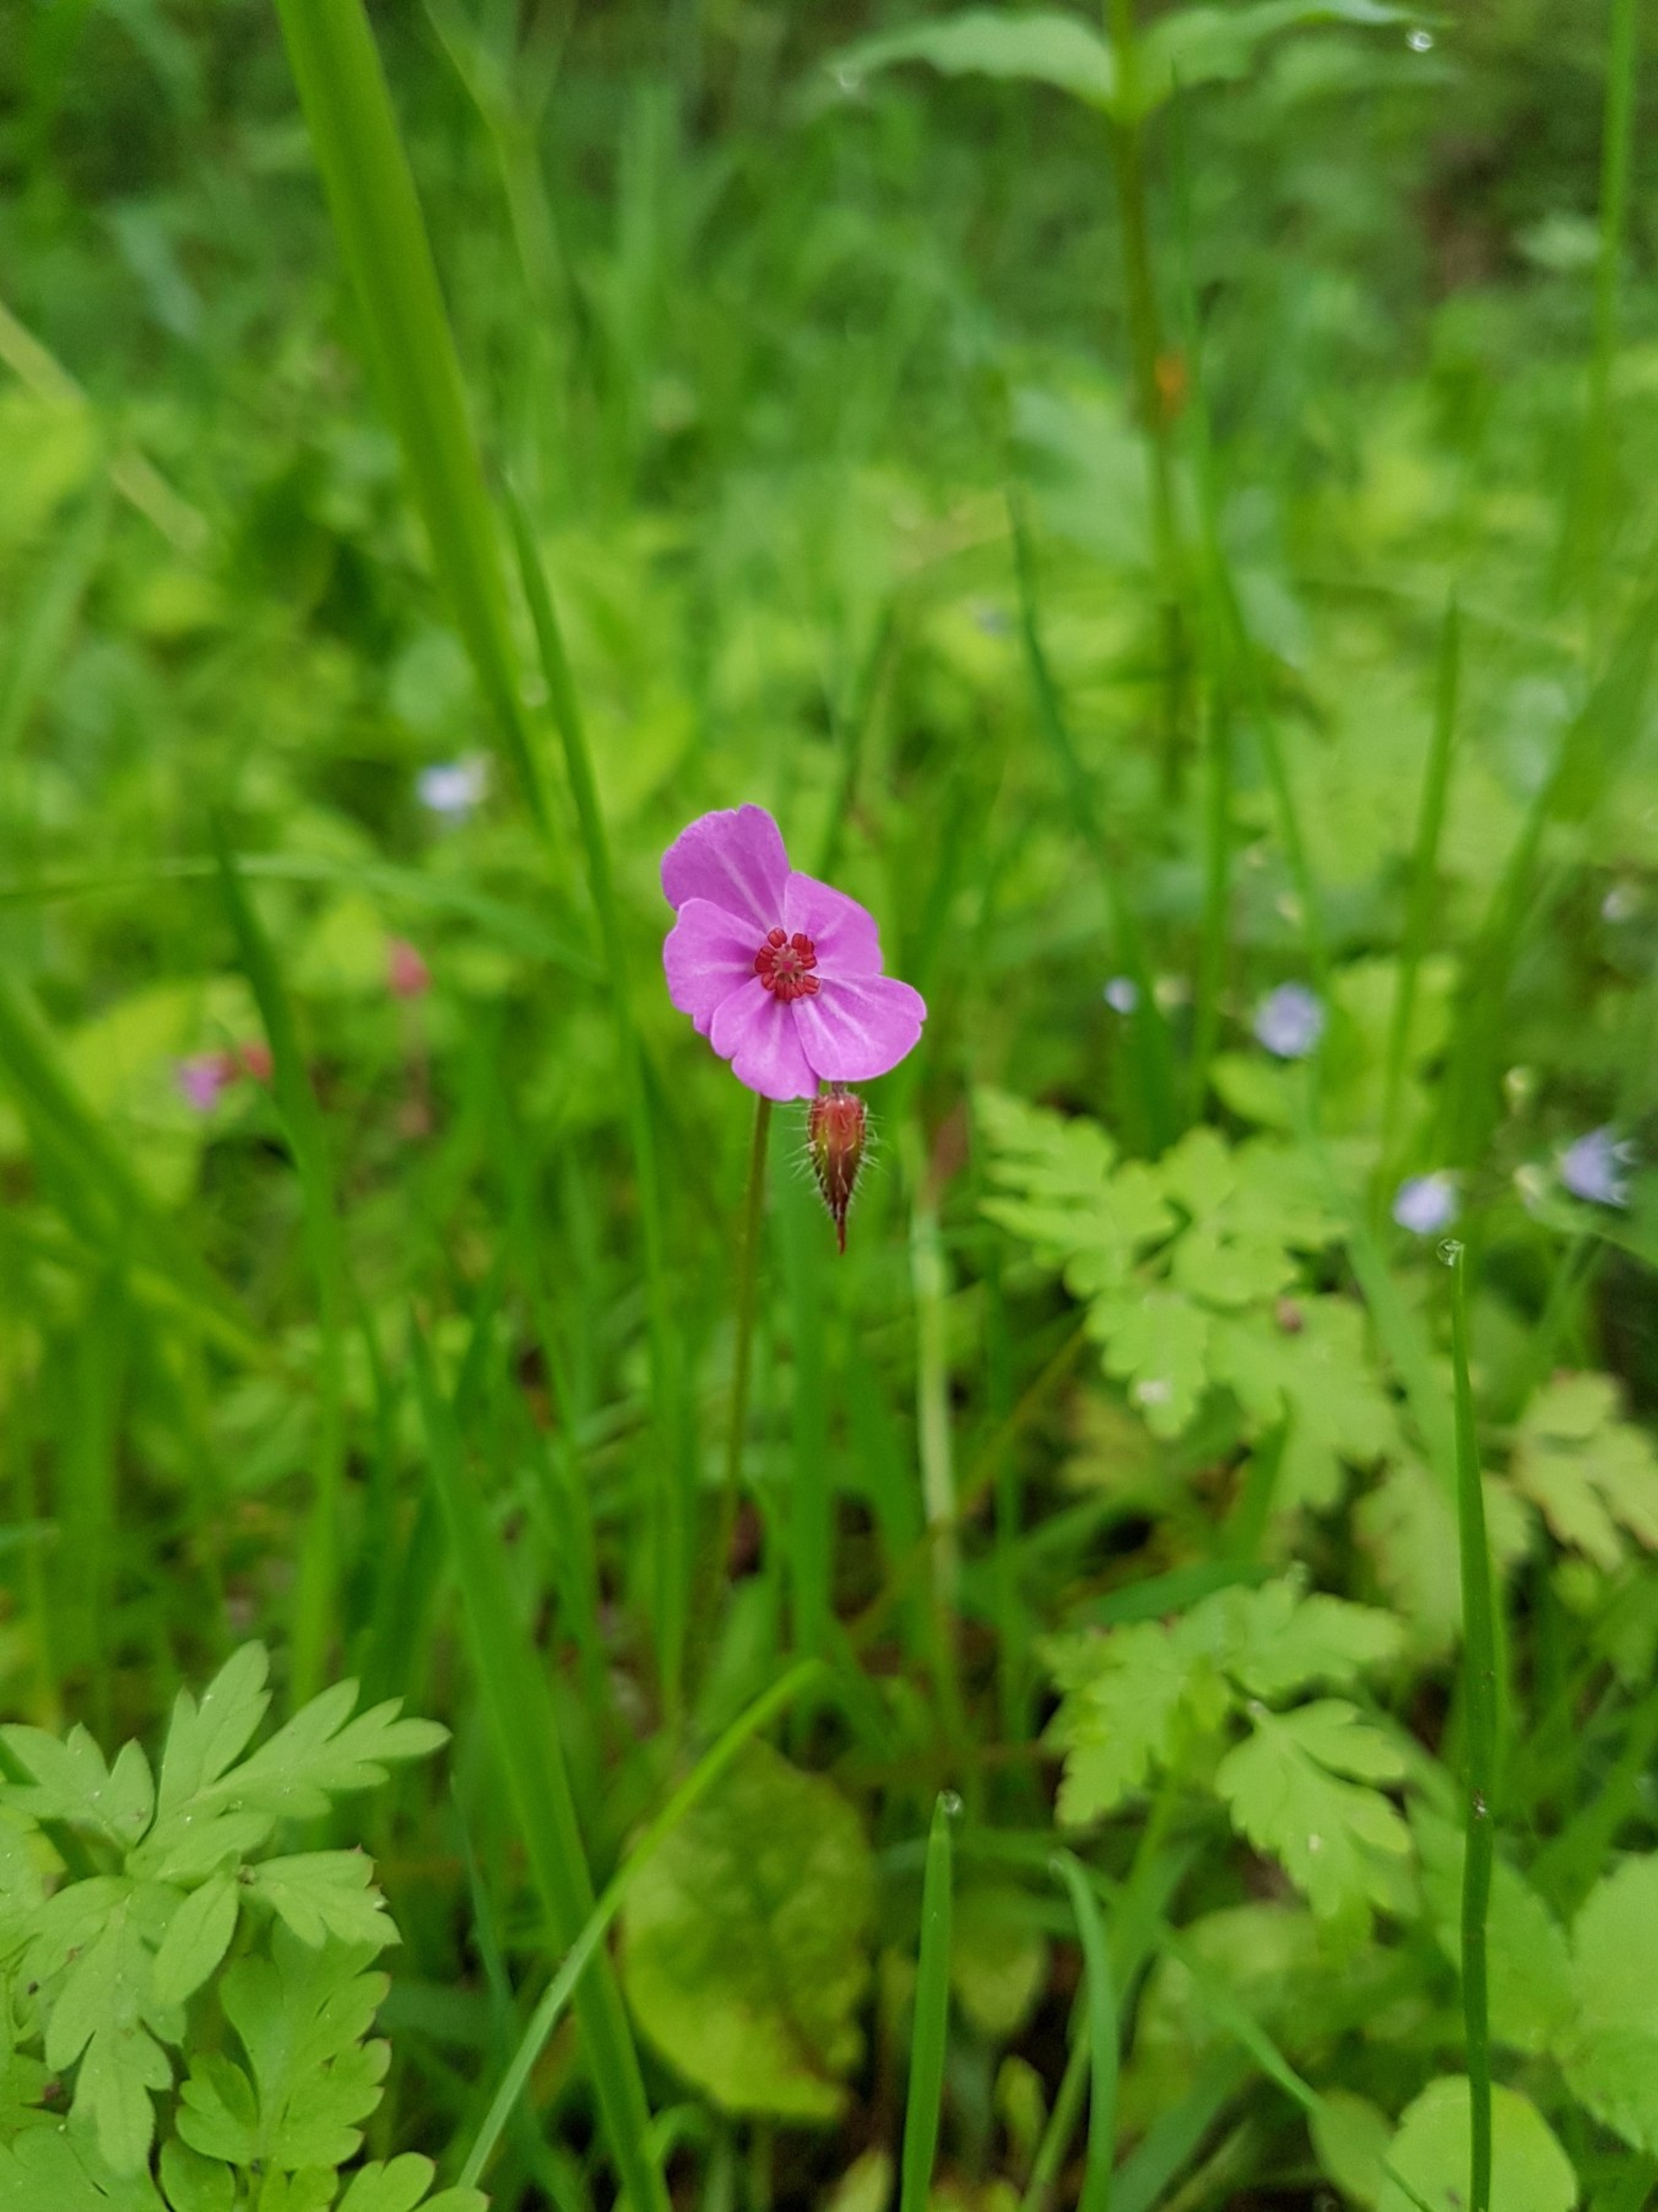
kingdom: Plantae
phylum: Tracheophyta
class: Magnoliopsida
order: Geraniales
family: Geraniaceae
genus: Geranium
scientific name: Geranium robertianum
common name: Stinkende storkenæb
